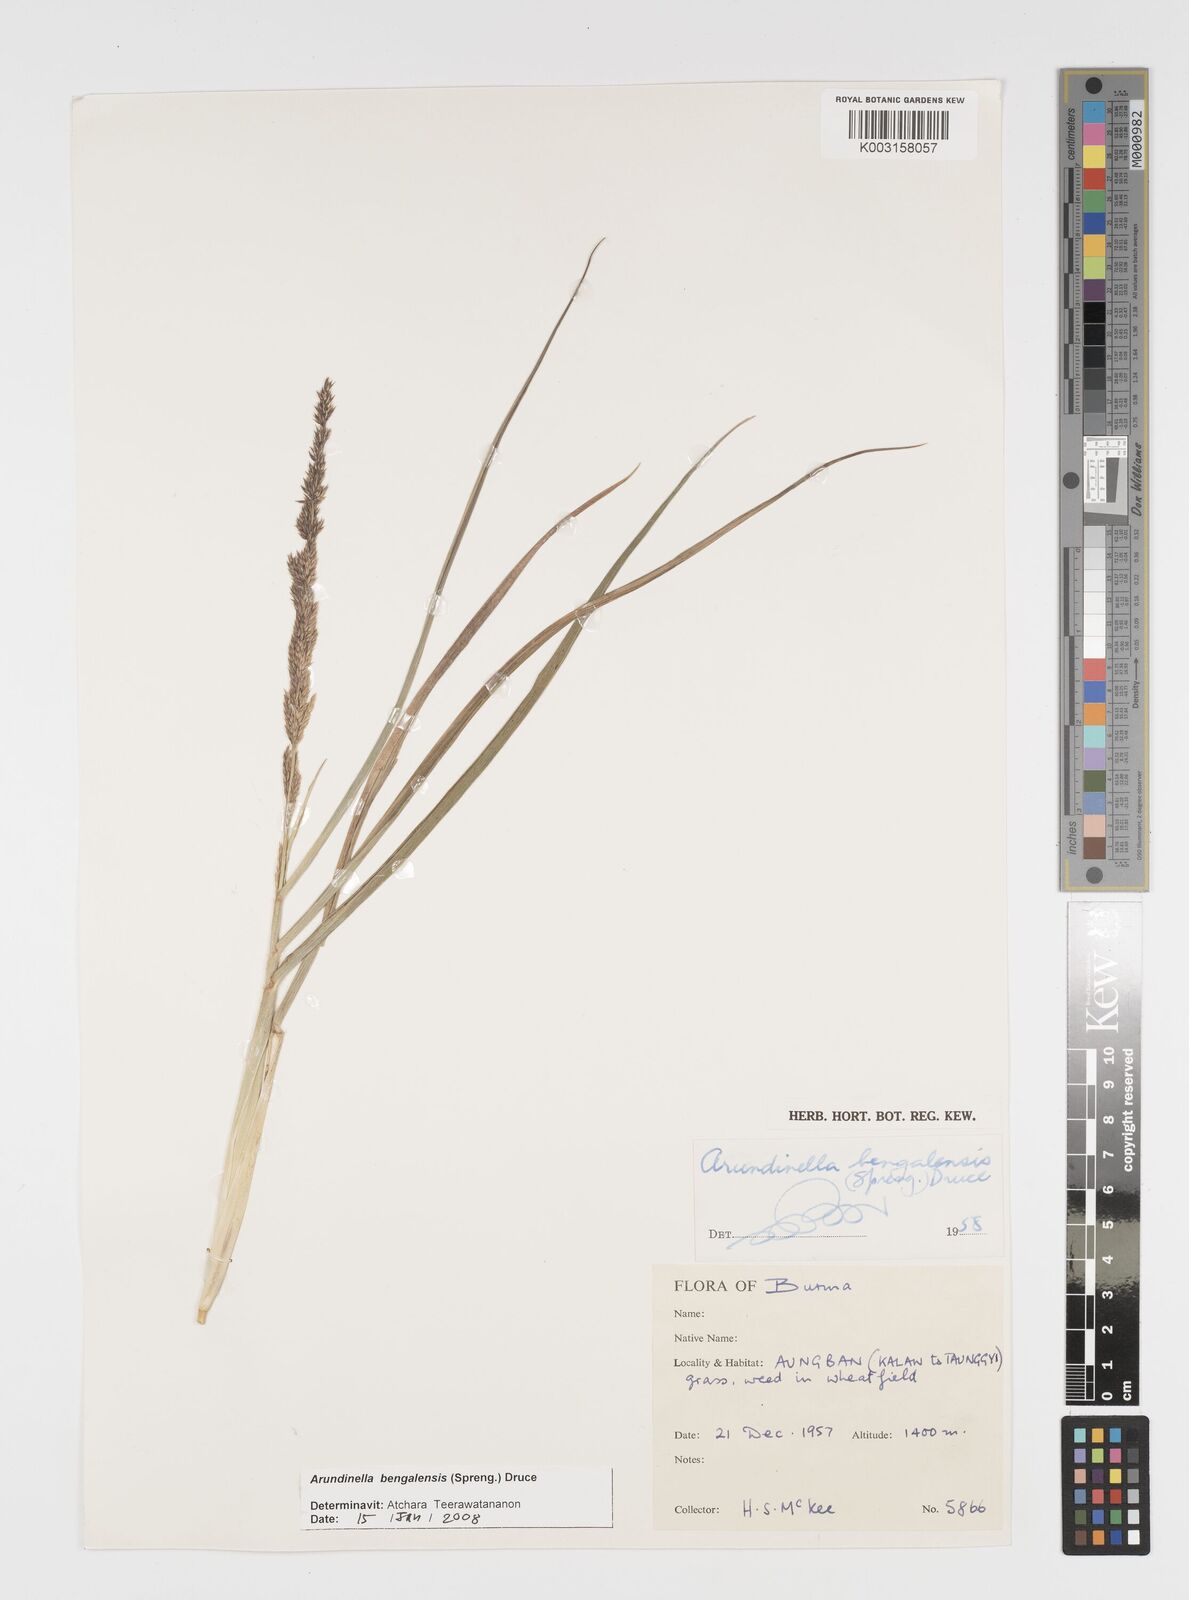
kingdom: Plantae
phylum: Tracheophyta
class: Liliopsida
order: Poales
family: Poaceae
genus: Arundinella
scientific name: Arundinella bengalensis
